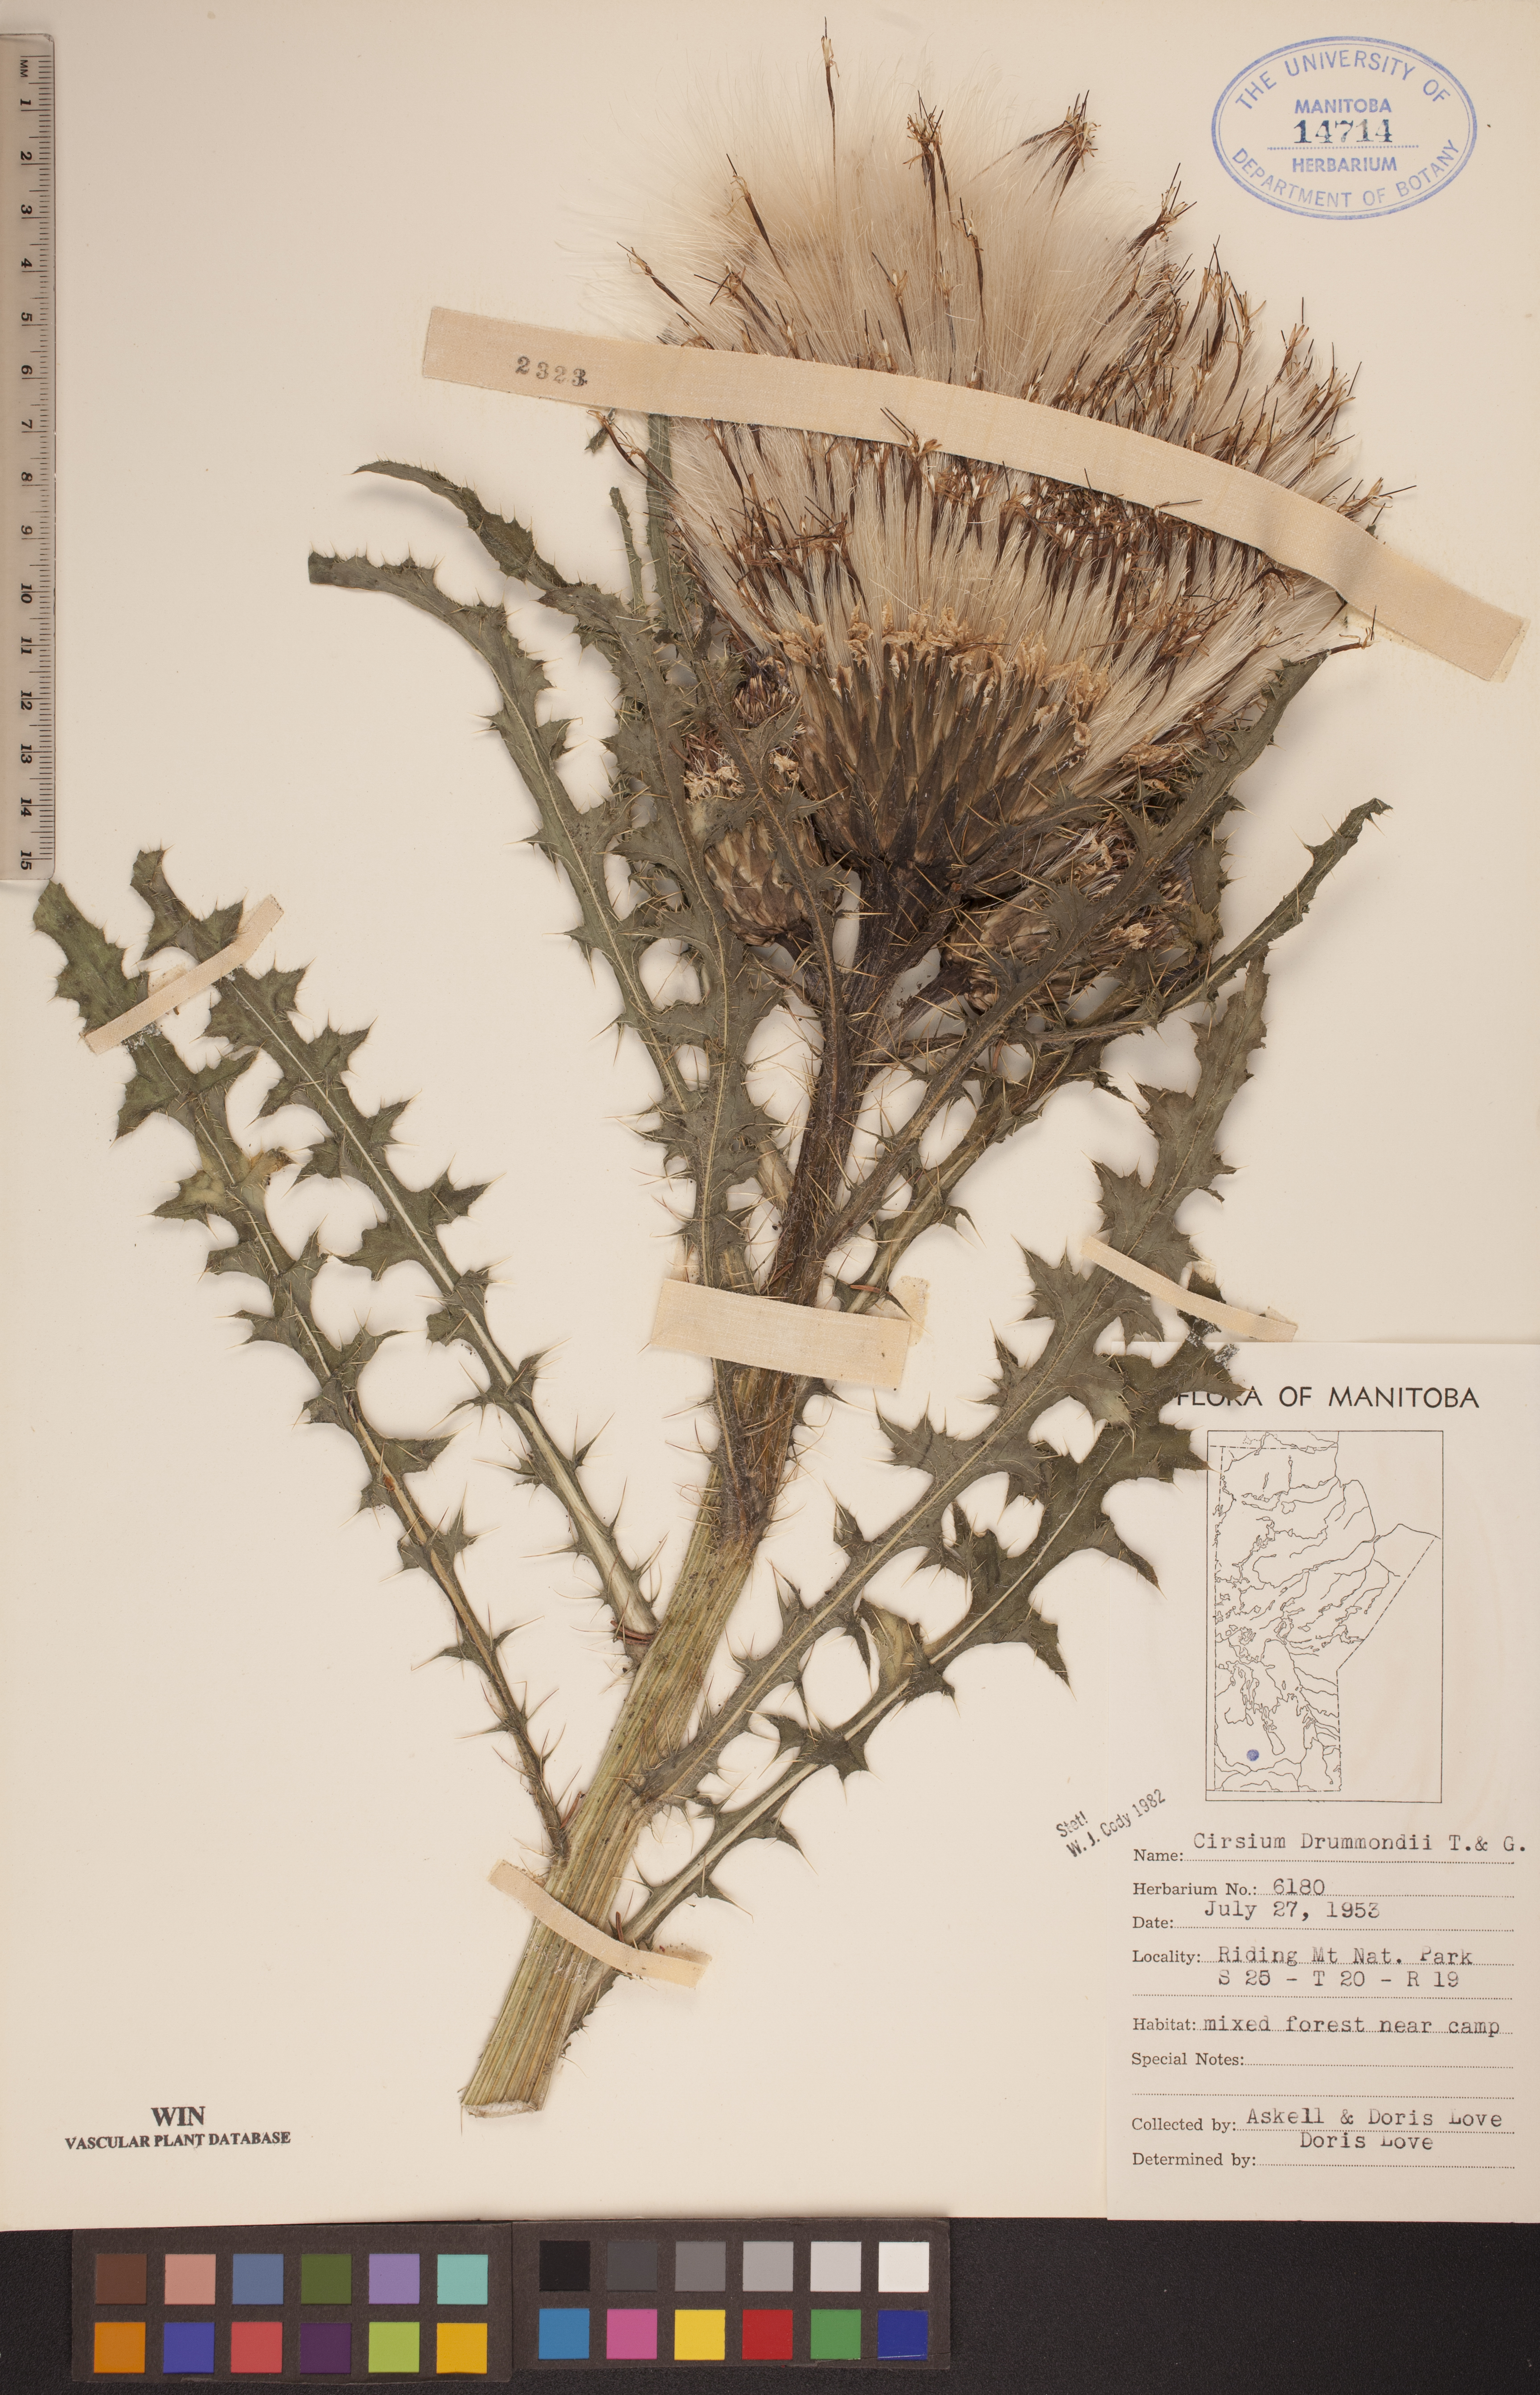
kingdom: Plantae
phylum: Tracheophyta
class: Magnoliopsida
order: Asterales
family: Asteraceae
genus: Cirsium
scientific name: Cirsium drummondii
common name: Drummond's thistle
